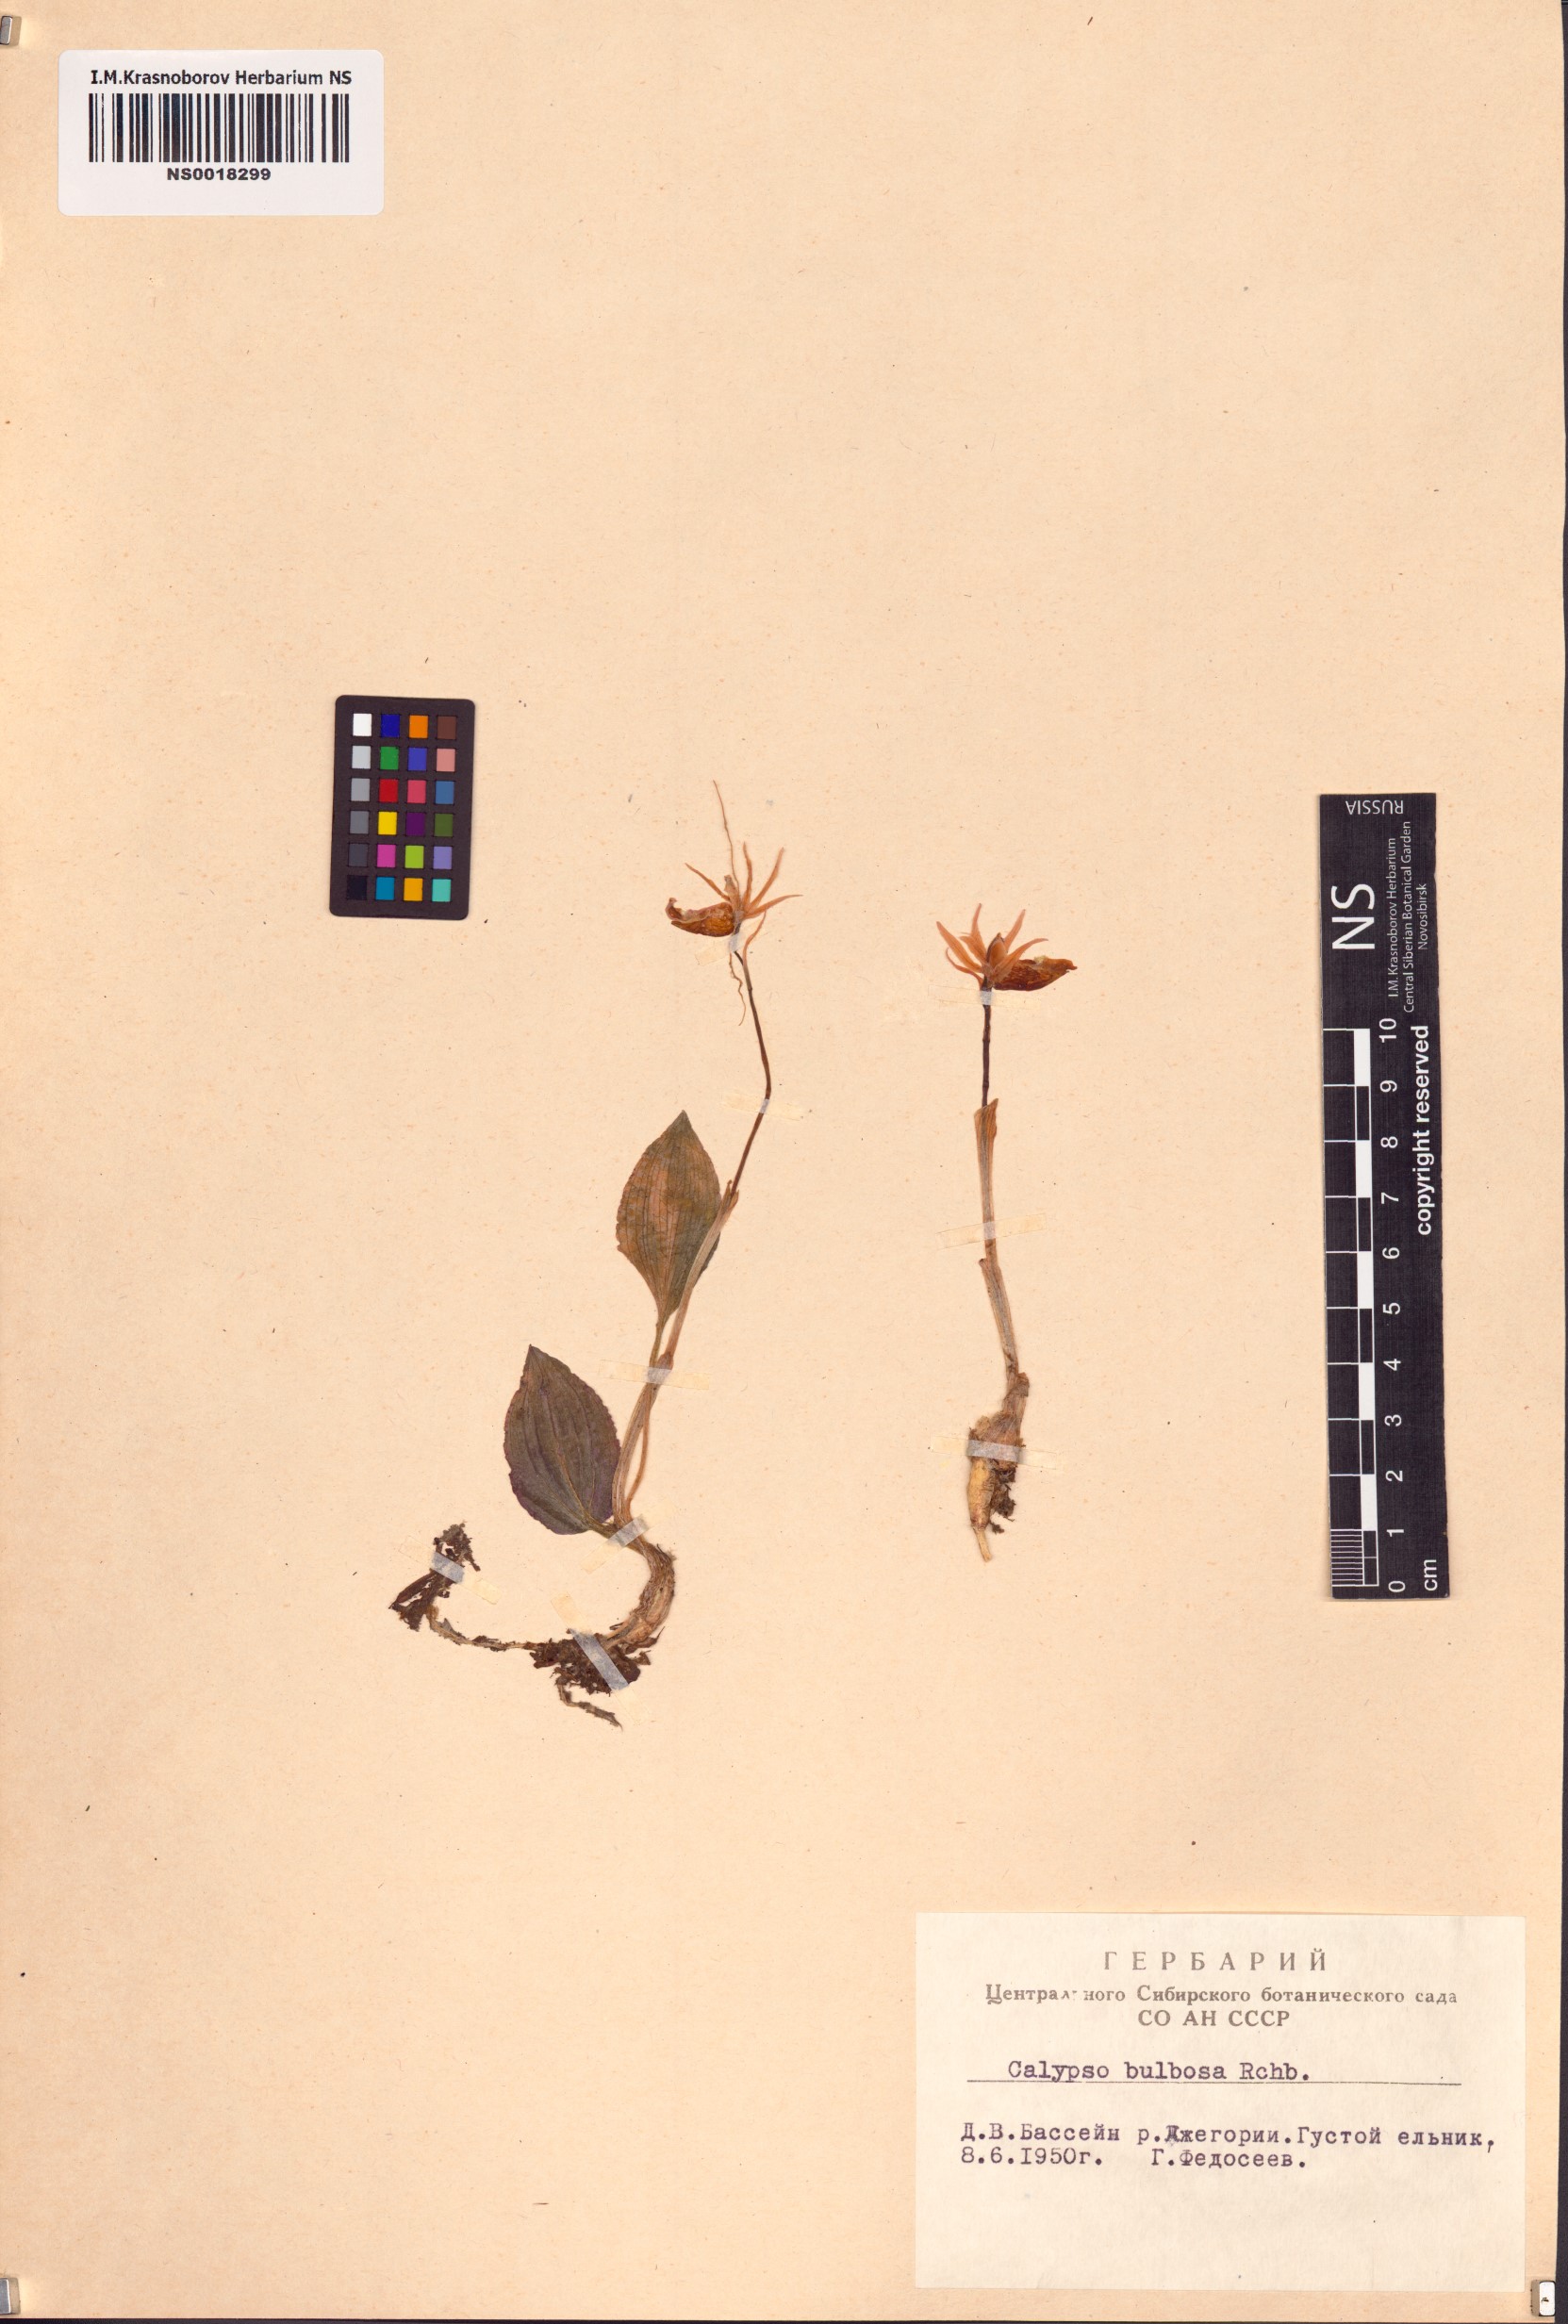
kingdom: Plantae
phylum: Tracheophyta
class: Liliopsida
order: Asparagales
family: Orchidaceae
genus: Calypso
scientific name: Calypso bulbosa
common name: Calypso
